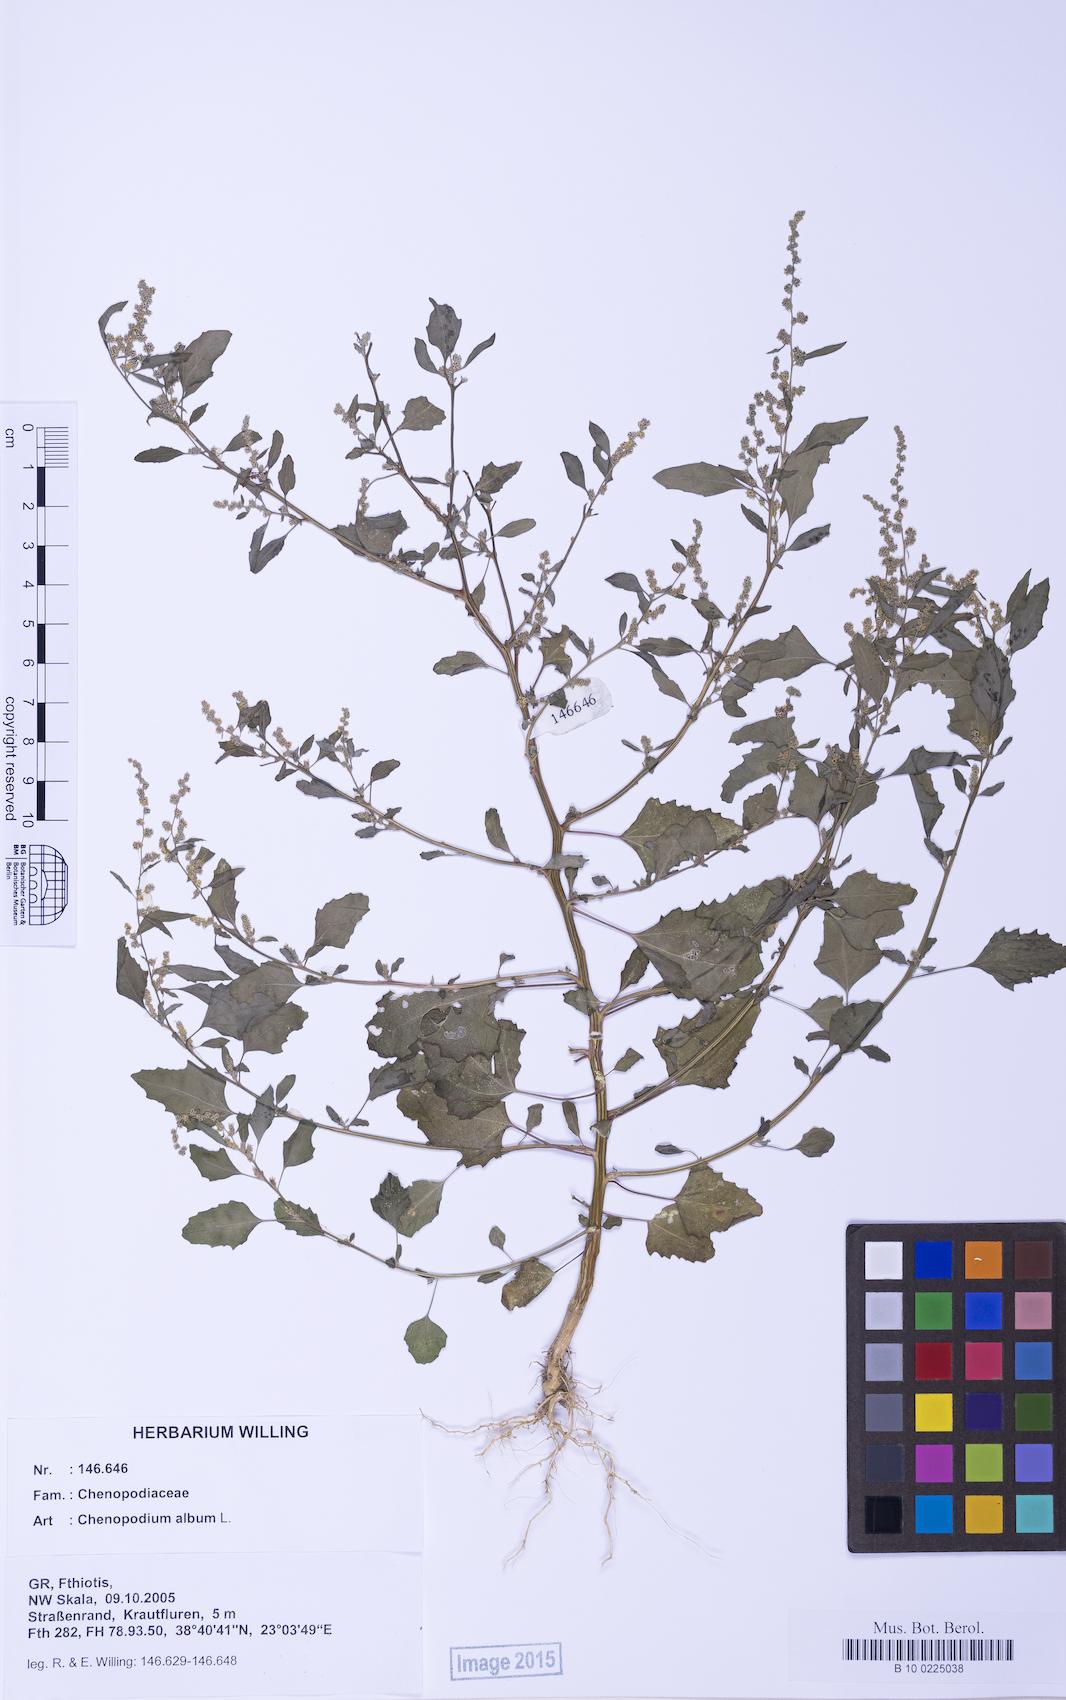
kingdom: Plantae
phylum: Tracheophyta
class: Magnoliopsida
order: Caryophyllales
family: Amaranthaceae
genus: Chenopodium
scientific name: Chenopodium album
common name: Fat-hen
